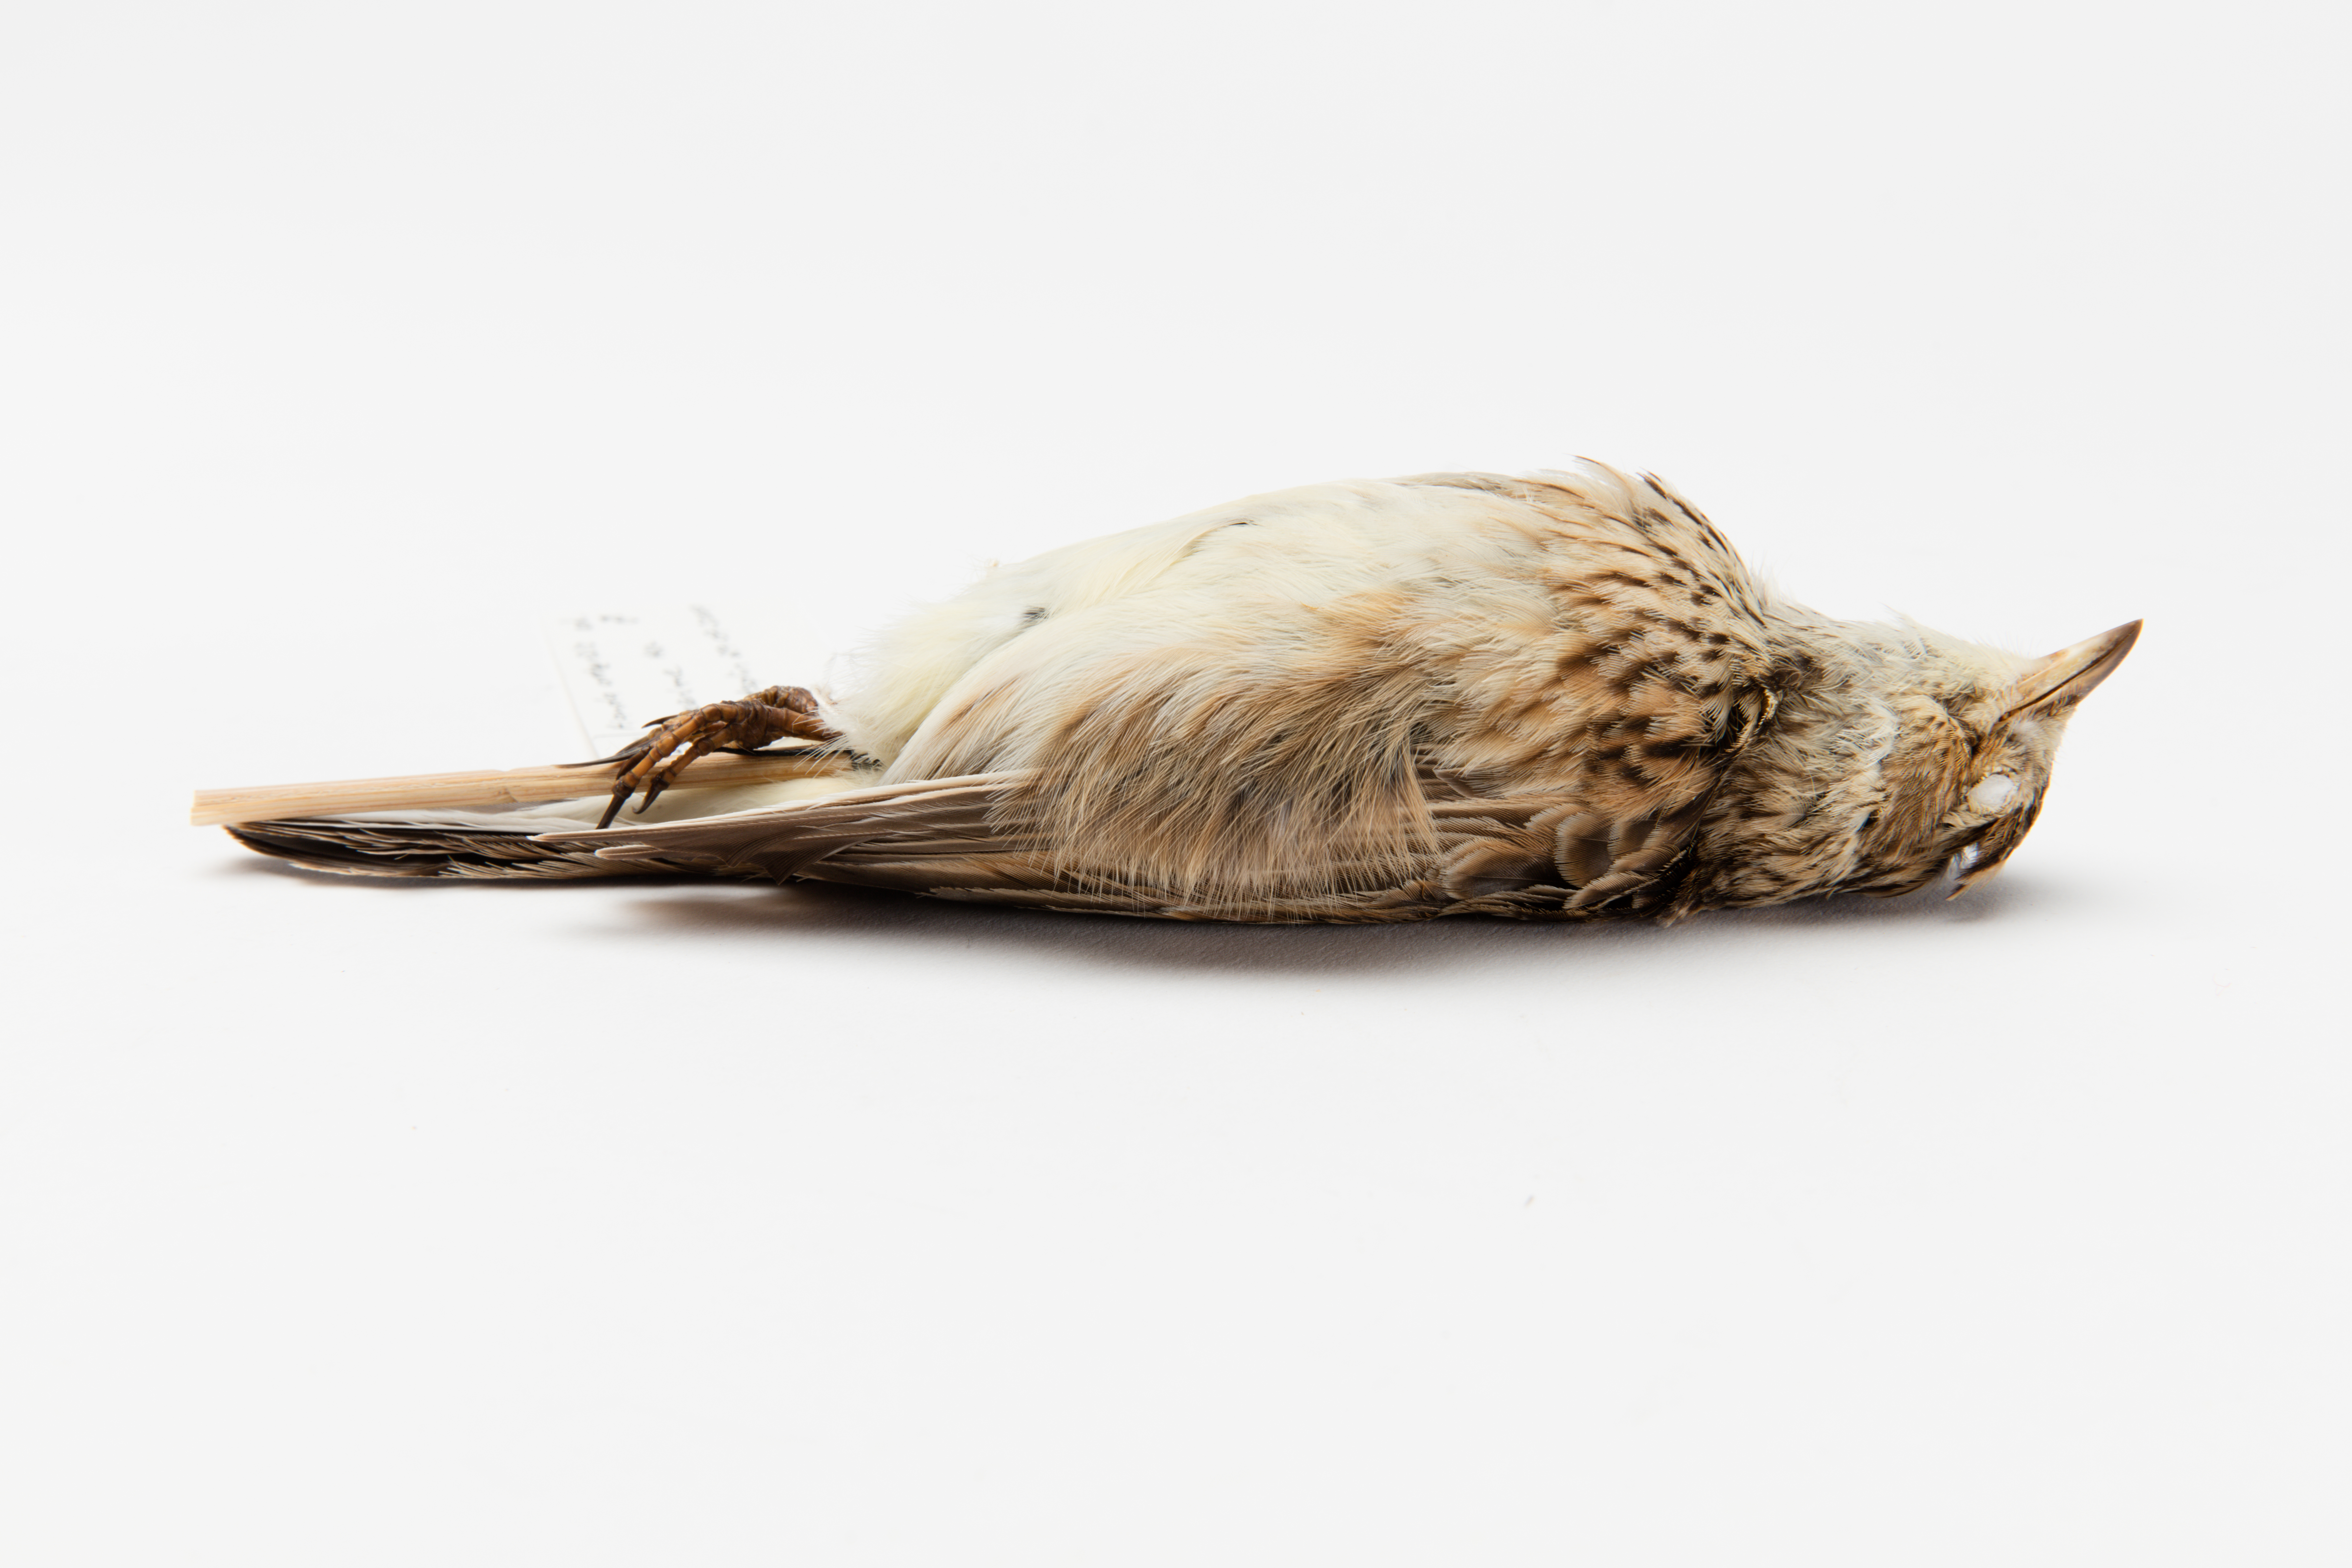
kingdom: Animalia
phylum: Chordata
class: Aves
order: Passeriformes
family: Alaudidae
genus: Alauda
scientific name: Alauda arvensis
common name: Eurasian skylark
